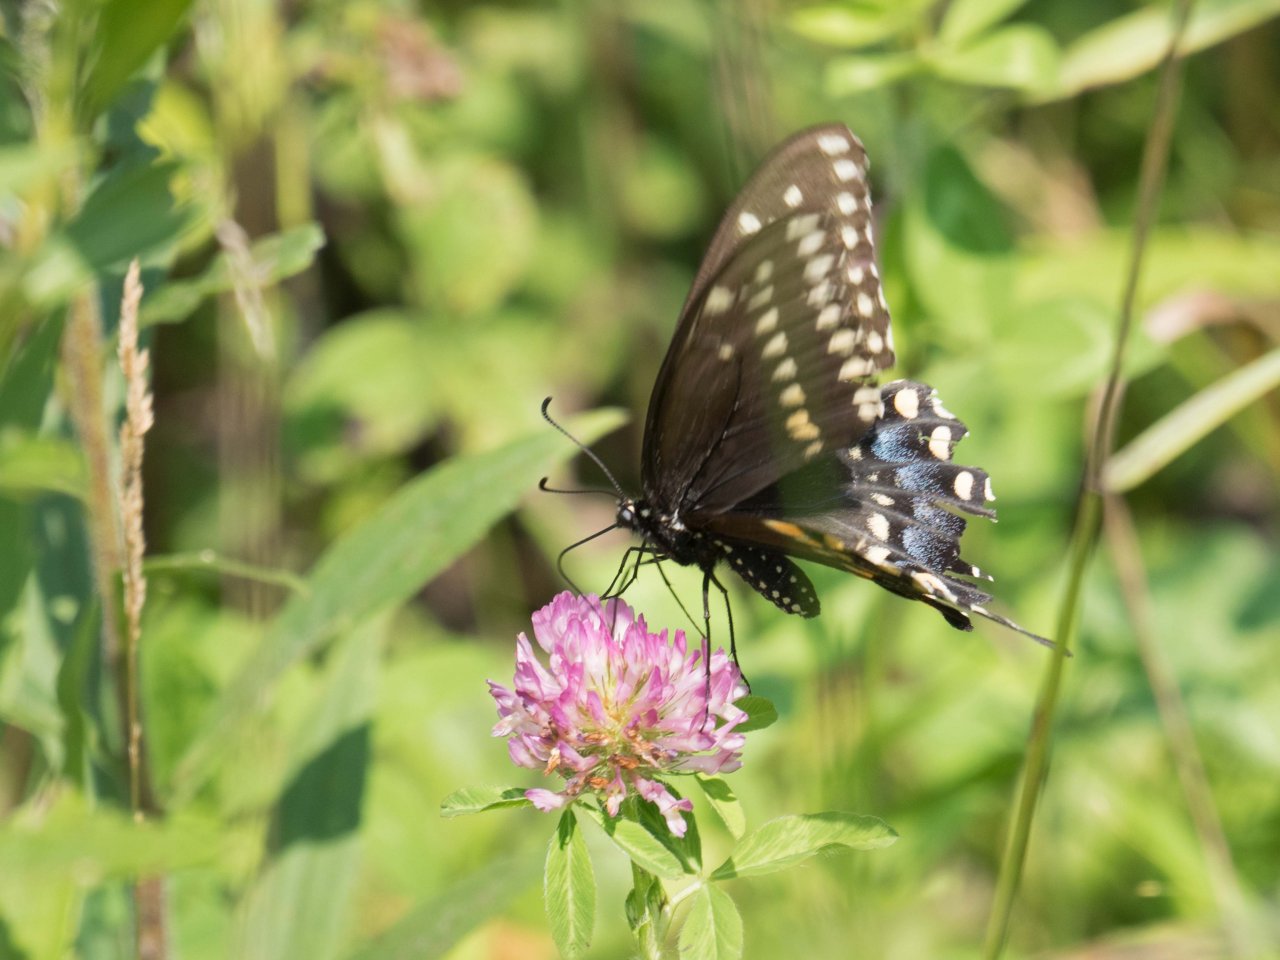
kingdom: Animalia
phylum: Arthropoda
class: Insecta
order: Lepidoptera
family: Papilionidae
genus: Papilio
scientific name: Papilio polyxenes
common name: Black Swallowtail
